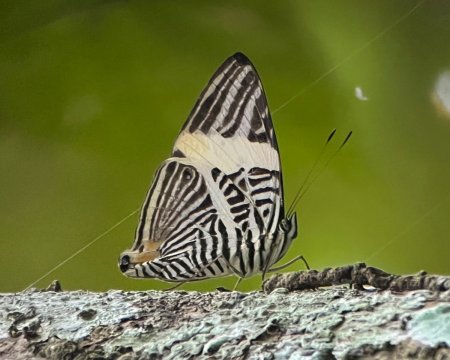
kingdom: Animalia
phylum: Arthropoda
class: Insecta
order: Lepidoptera
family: Nymphalidae
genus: Colobura
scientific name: Colobura annulata
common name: New Beauty
